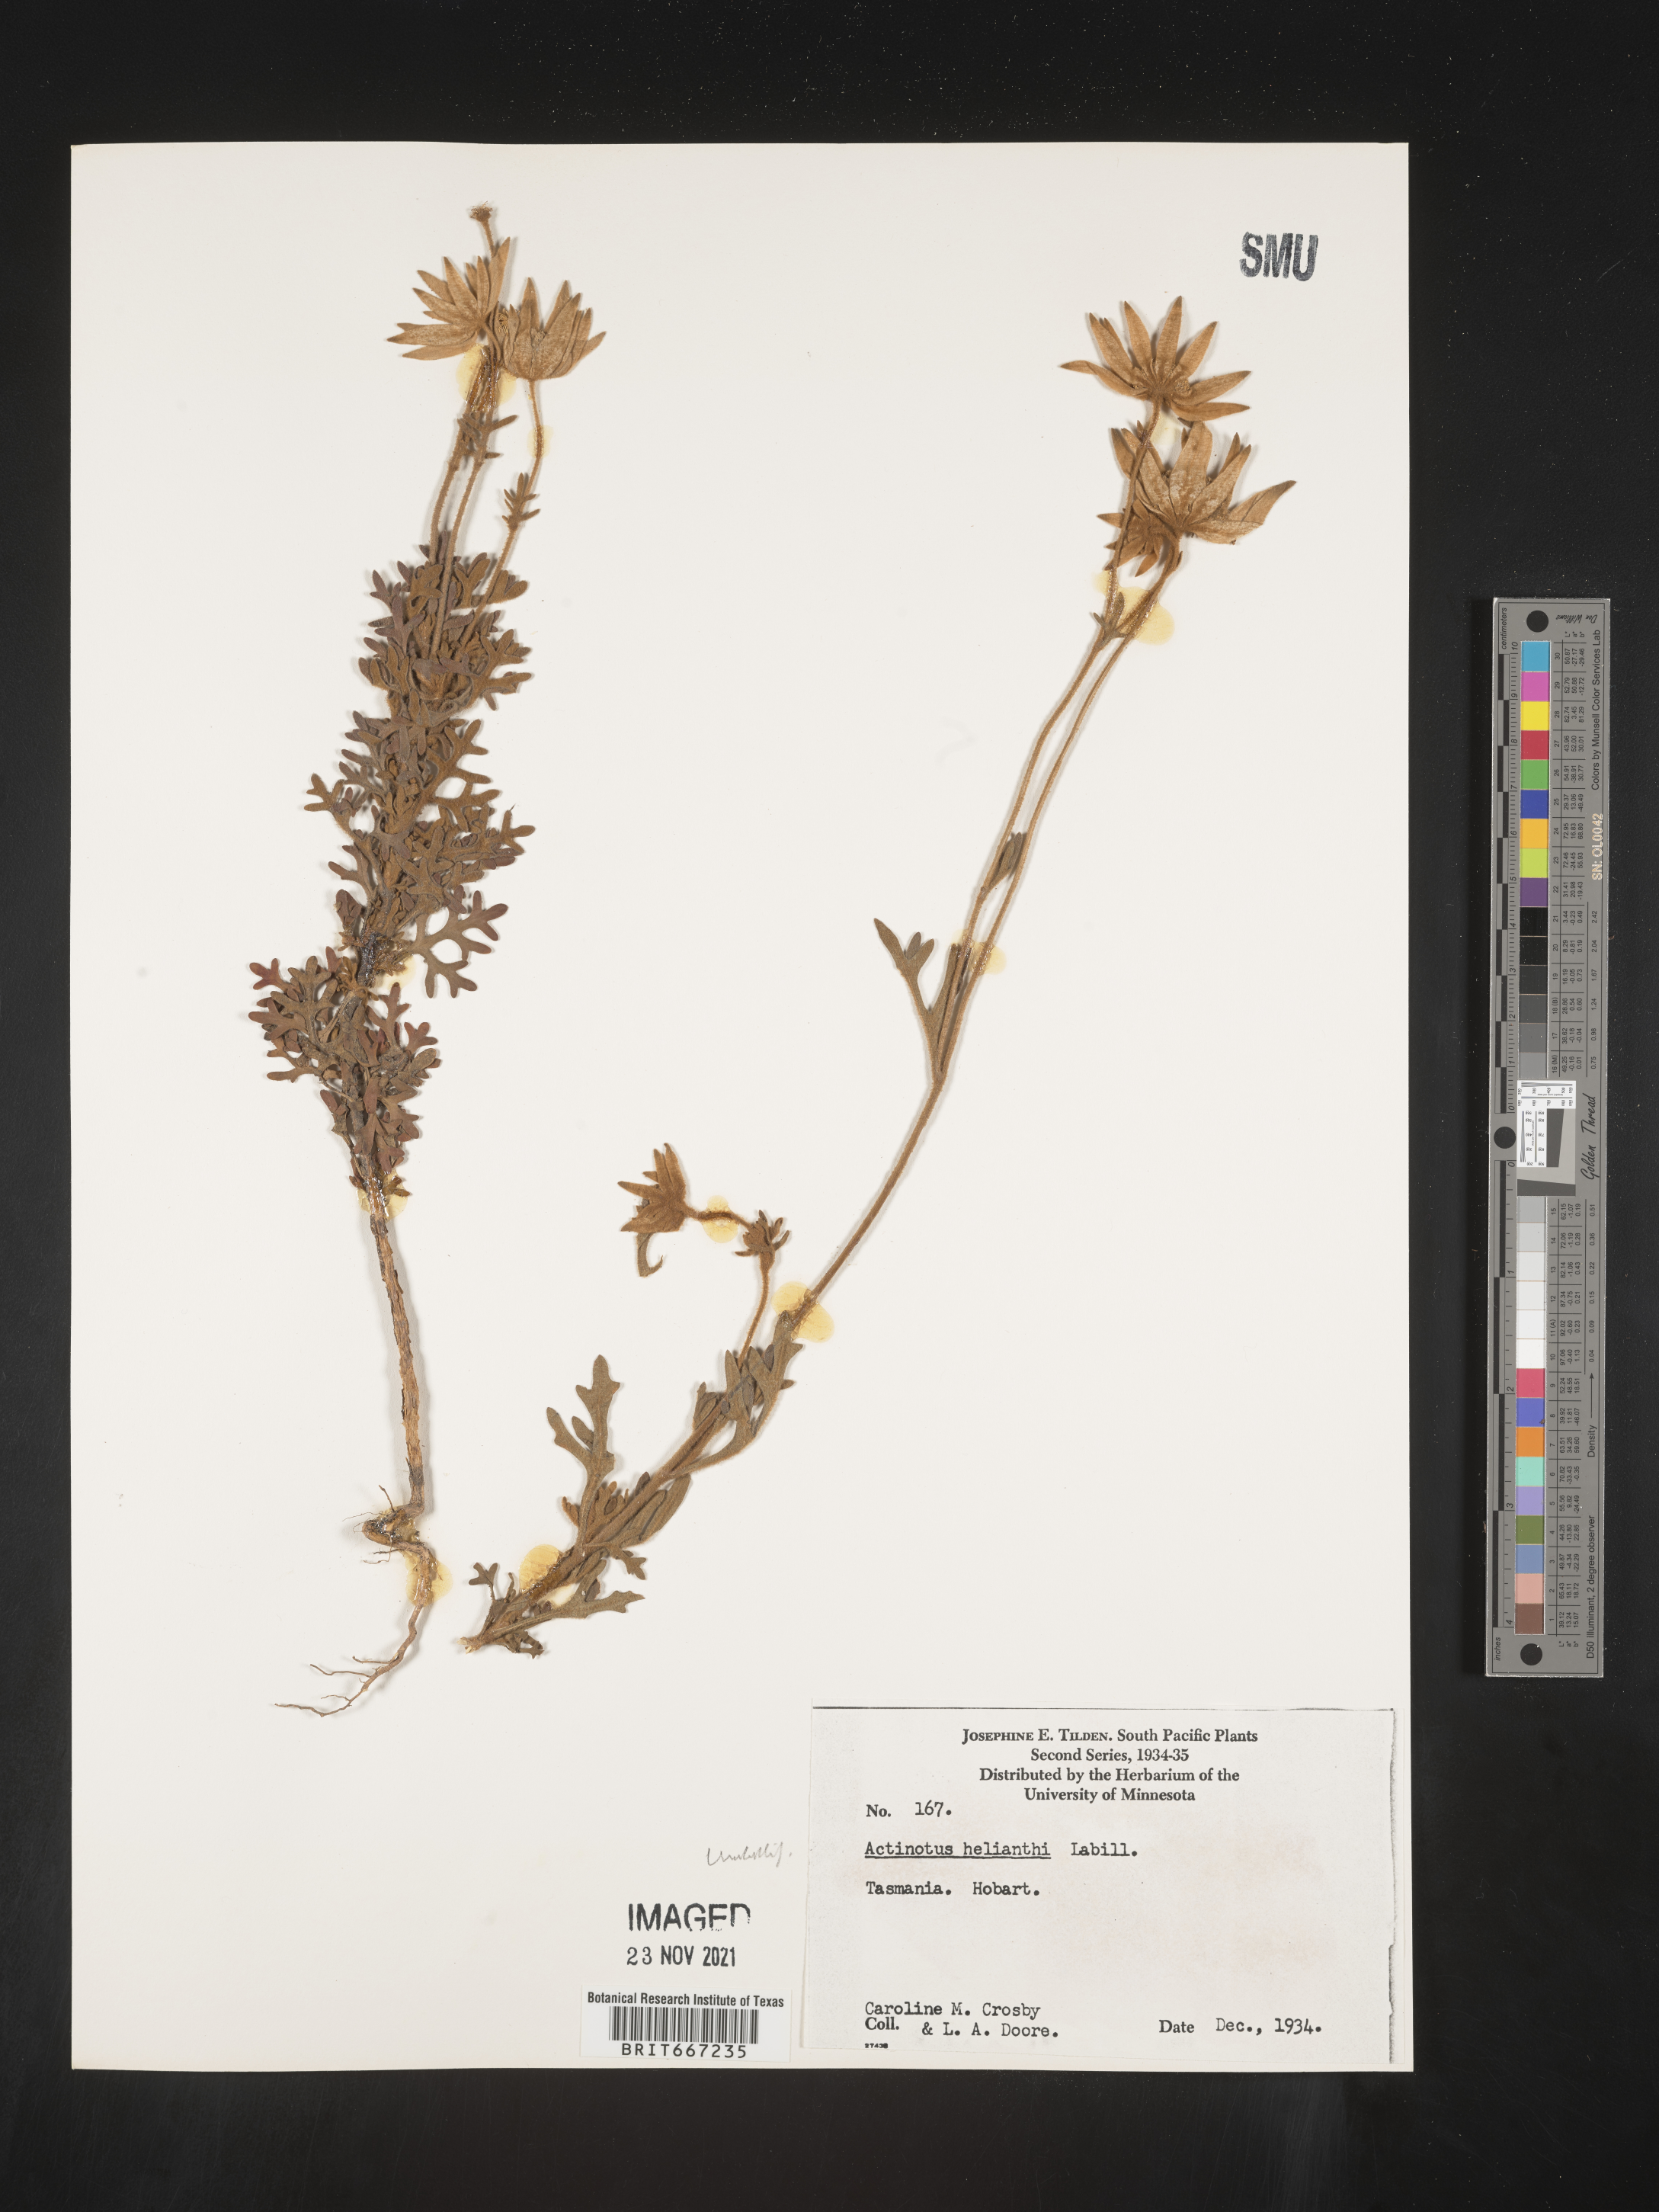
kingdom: Plantae
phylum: Tracheophyta
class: Magnoliopsida
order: Apiales
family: Apiaceae
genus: Actinotus
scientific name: Actinotus
